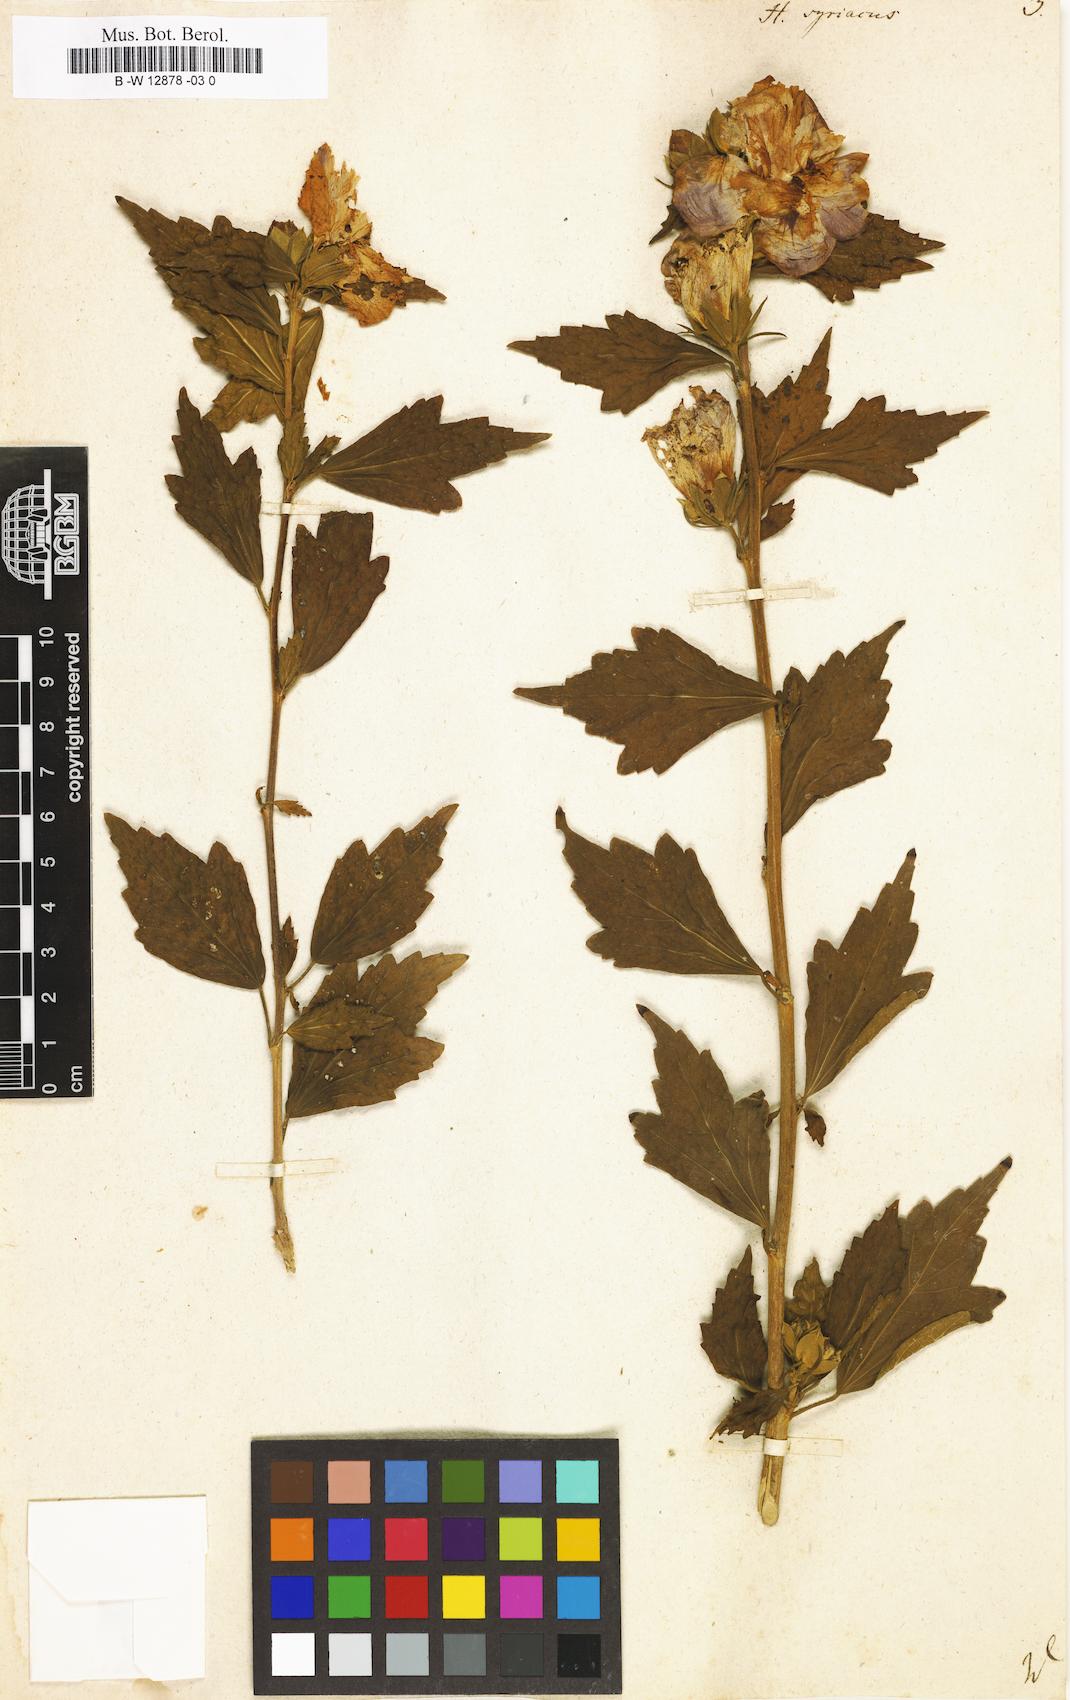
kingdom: Plantae
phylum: Tracheophyta
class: Magnoliopsida
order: Malvales
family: Malvaceae
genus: Hibiscus
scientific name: Hibiscus syriacus
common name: Syrian ketmia
